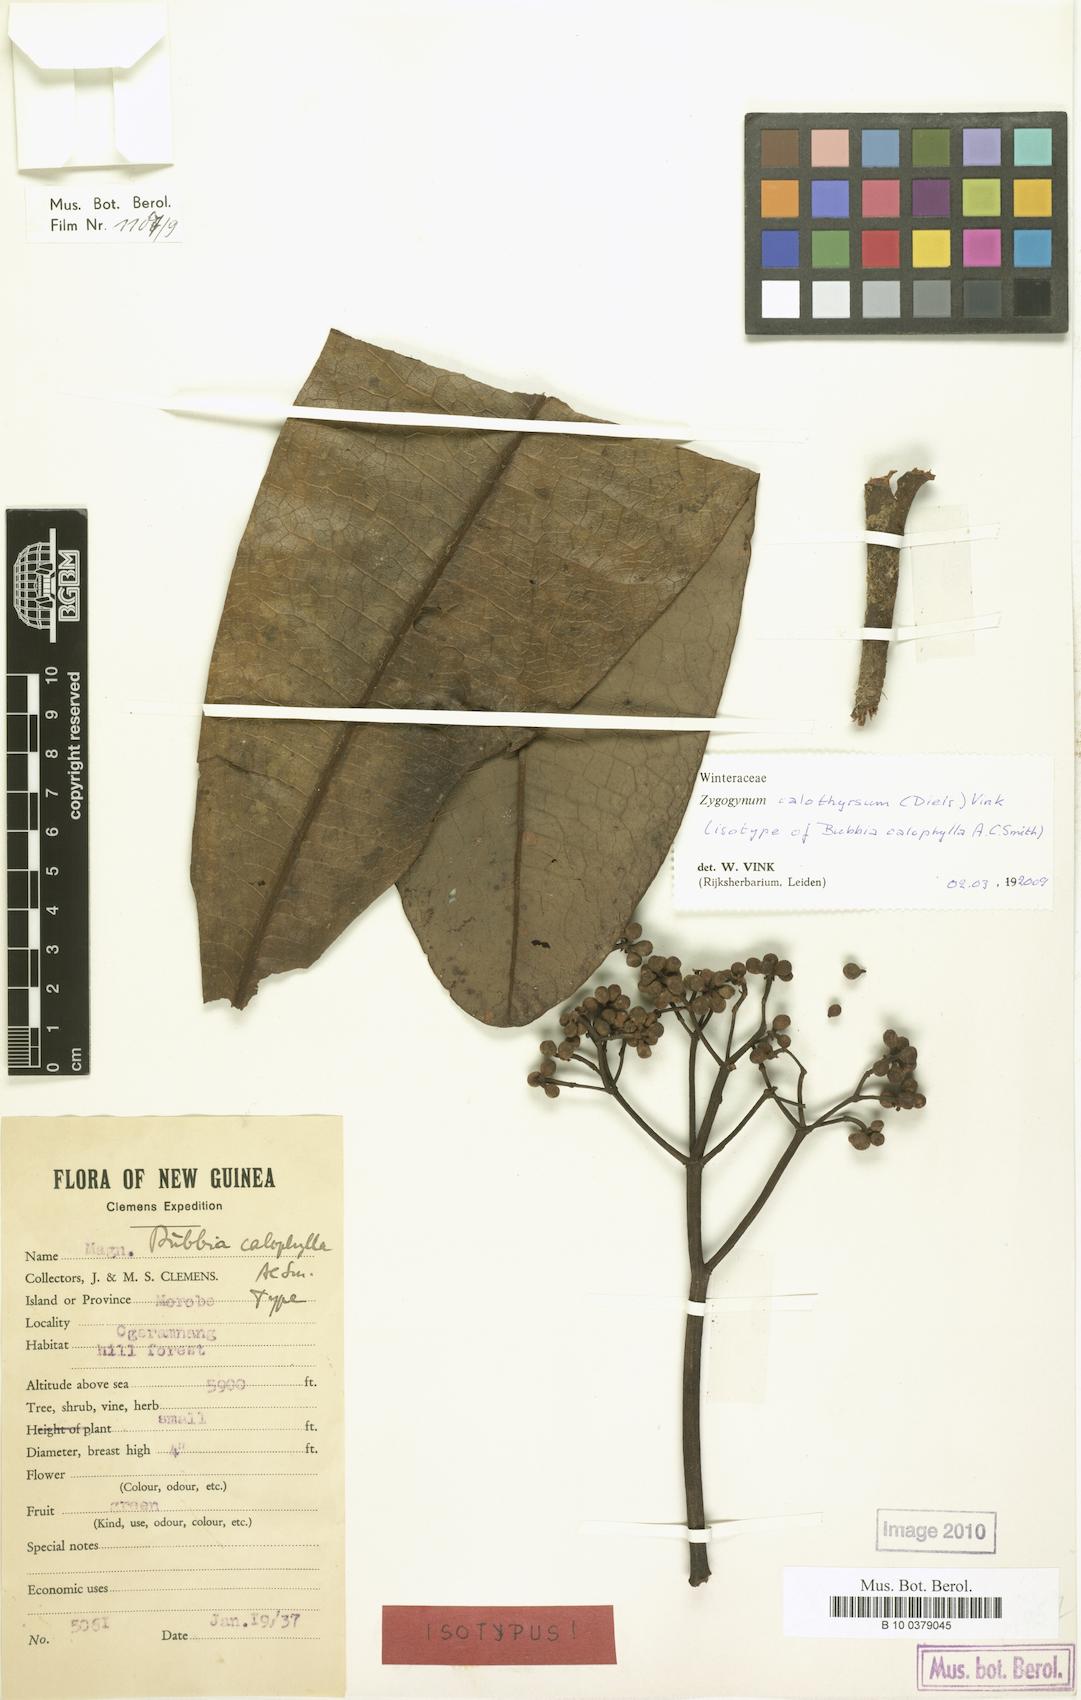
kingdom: Plantae
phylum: Tracheophyta
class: Magnoliopsida
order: Canellales
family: Winteraceae
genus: Zygogynum
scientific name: Zygogynum calothyrsum
